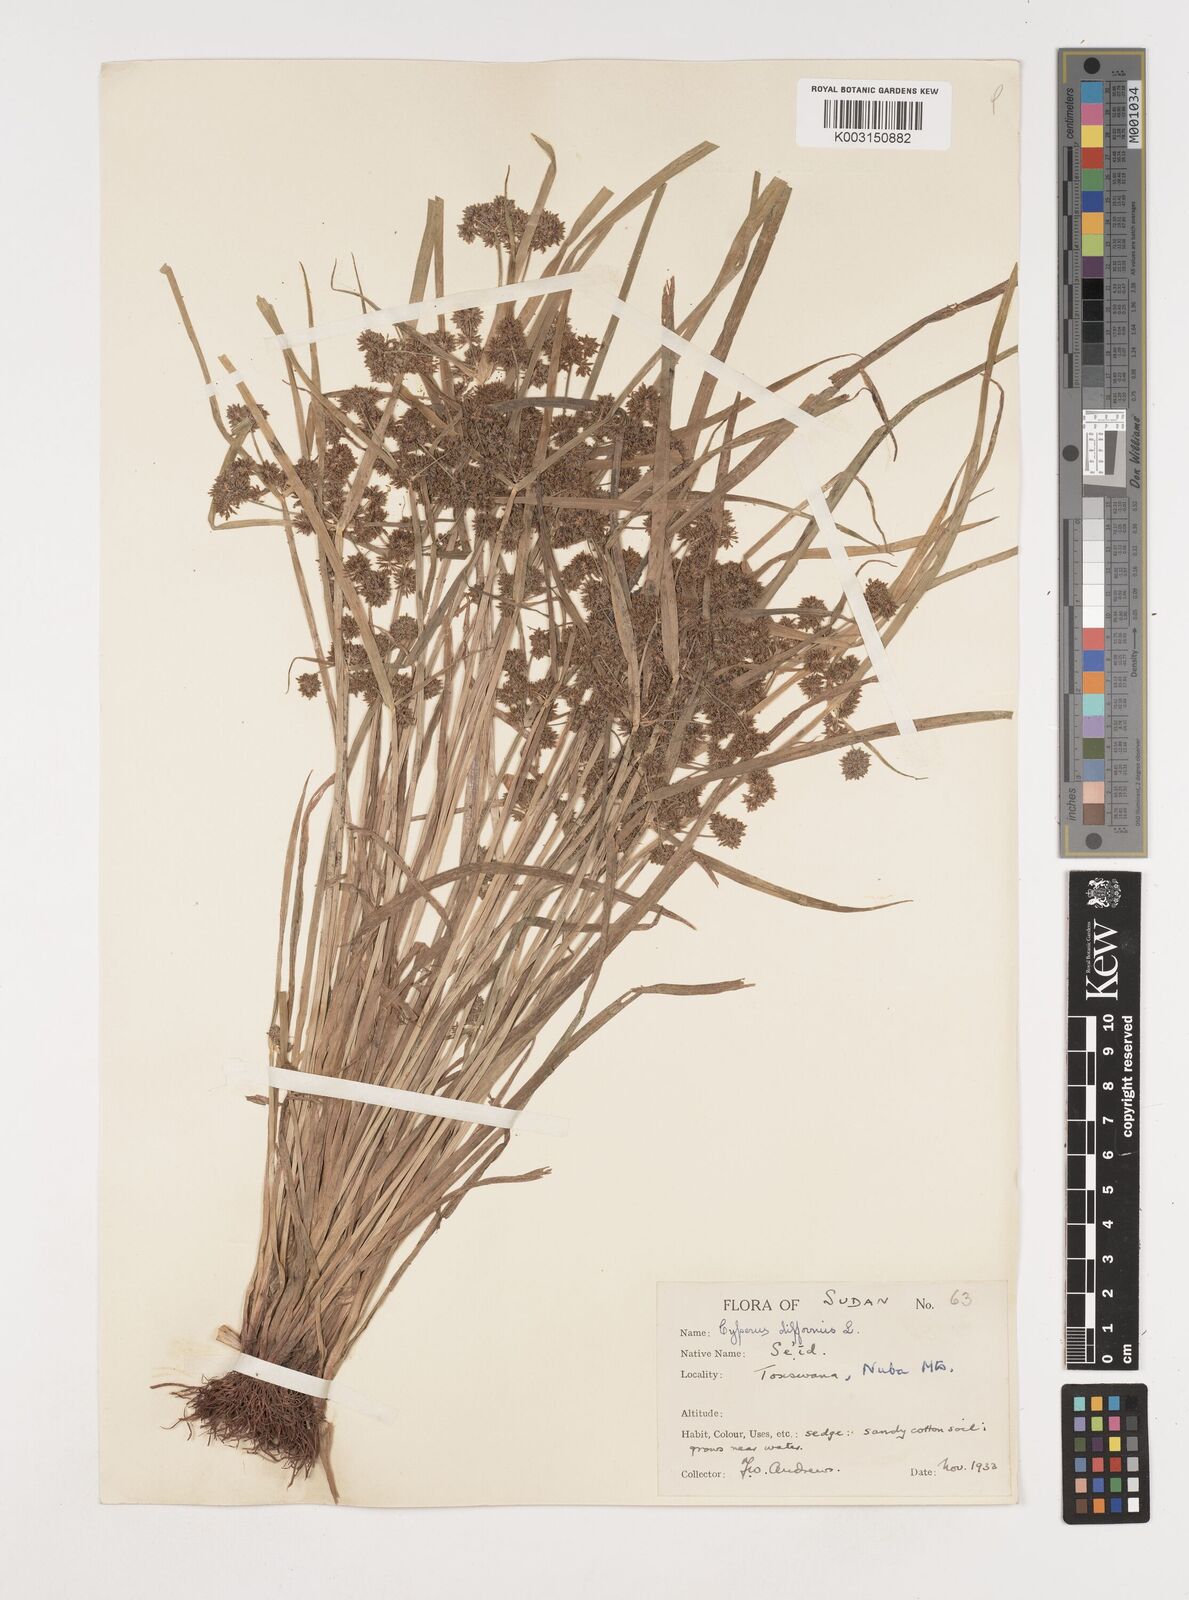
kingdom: Plantae
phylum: Tracheophyta
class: Liliopsida
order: Poales
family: Cyperaceae
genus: Cyperus
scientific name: Cyperus difformis
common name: Variable flatsedge
